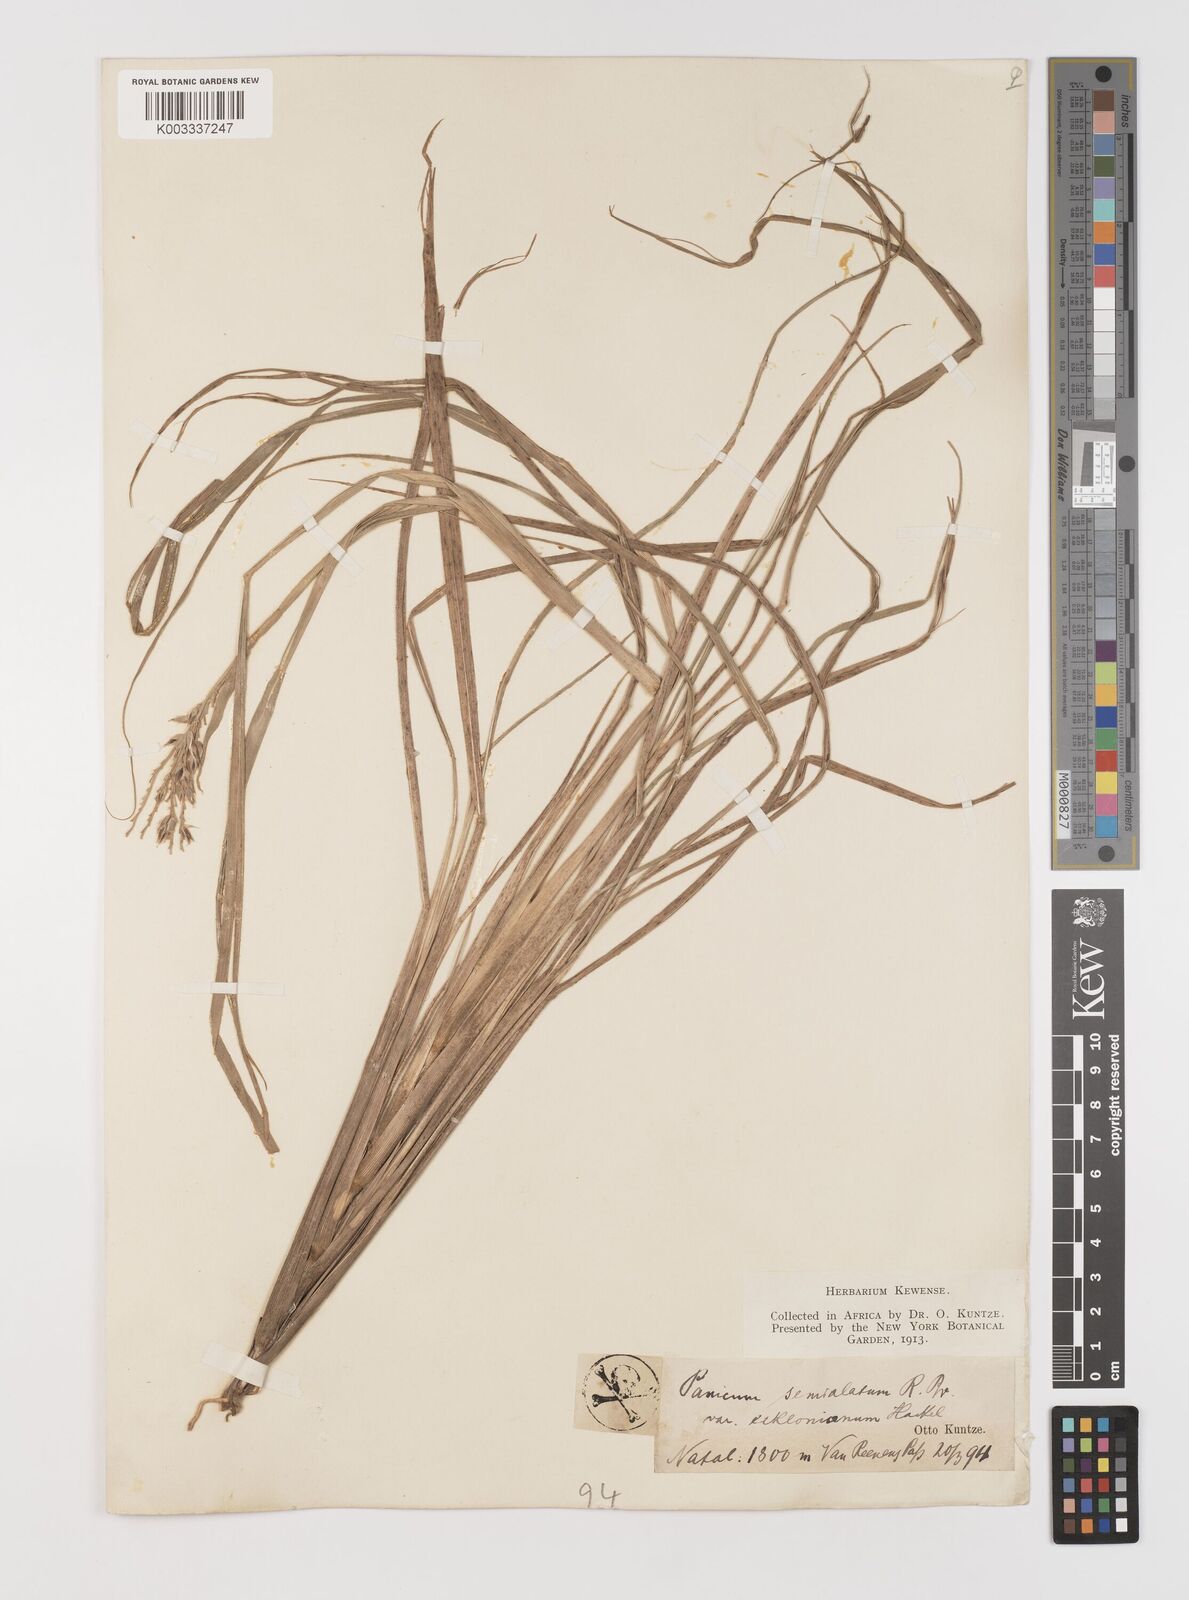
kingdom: Plantae
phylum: Tracheophyta
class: Liliopsida
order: Poales
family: Poaceae
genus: Alloteropsis
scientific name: Alloteropsis semialata
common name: Cockatoo grass
